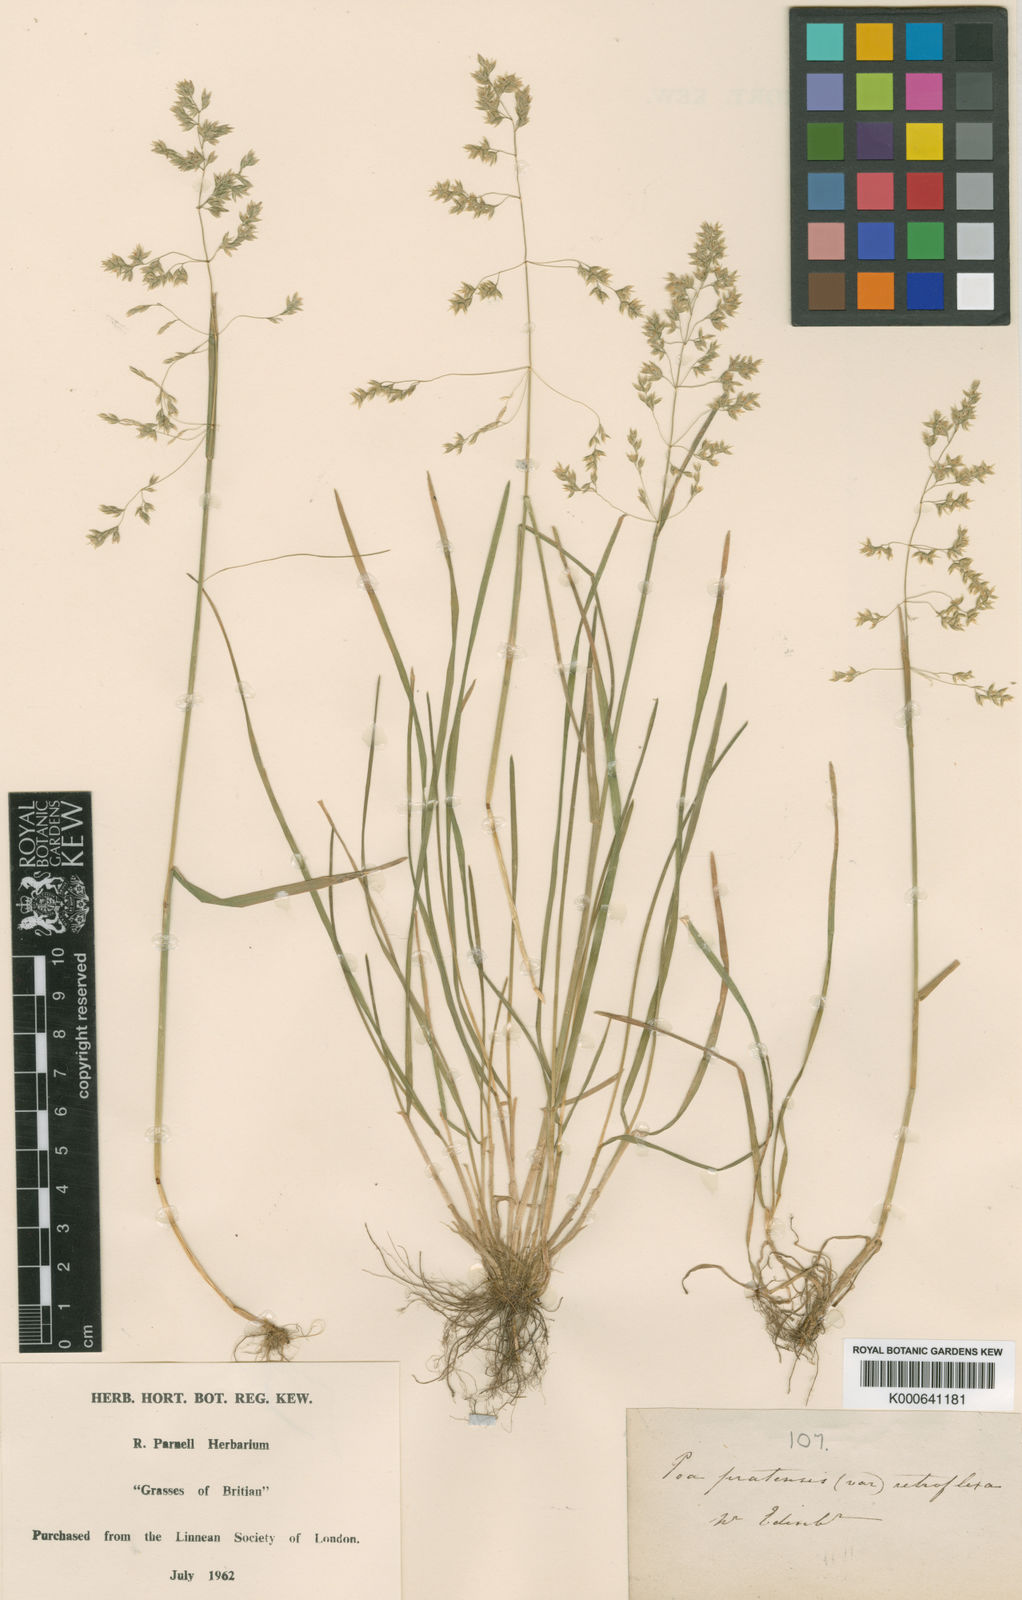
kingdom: Plantae
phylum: Tracheophyta
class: Liliopsida
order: Poales
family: Poaceae
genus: Poa
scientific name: Poa pratensis
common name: Kentucky bluegrass
